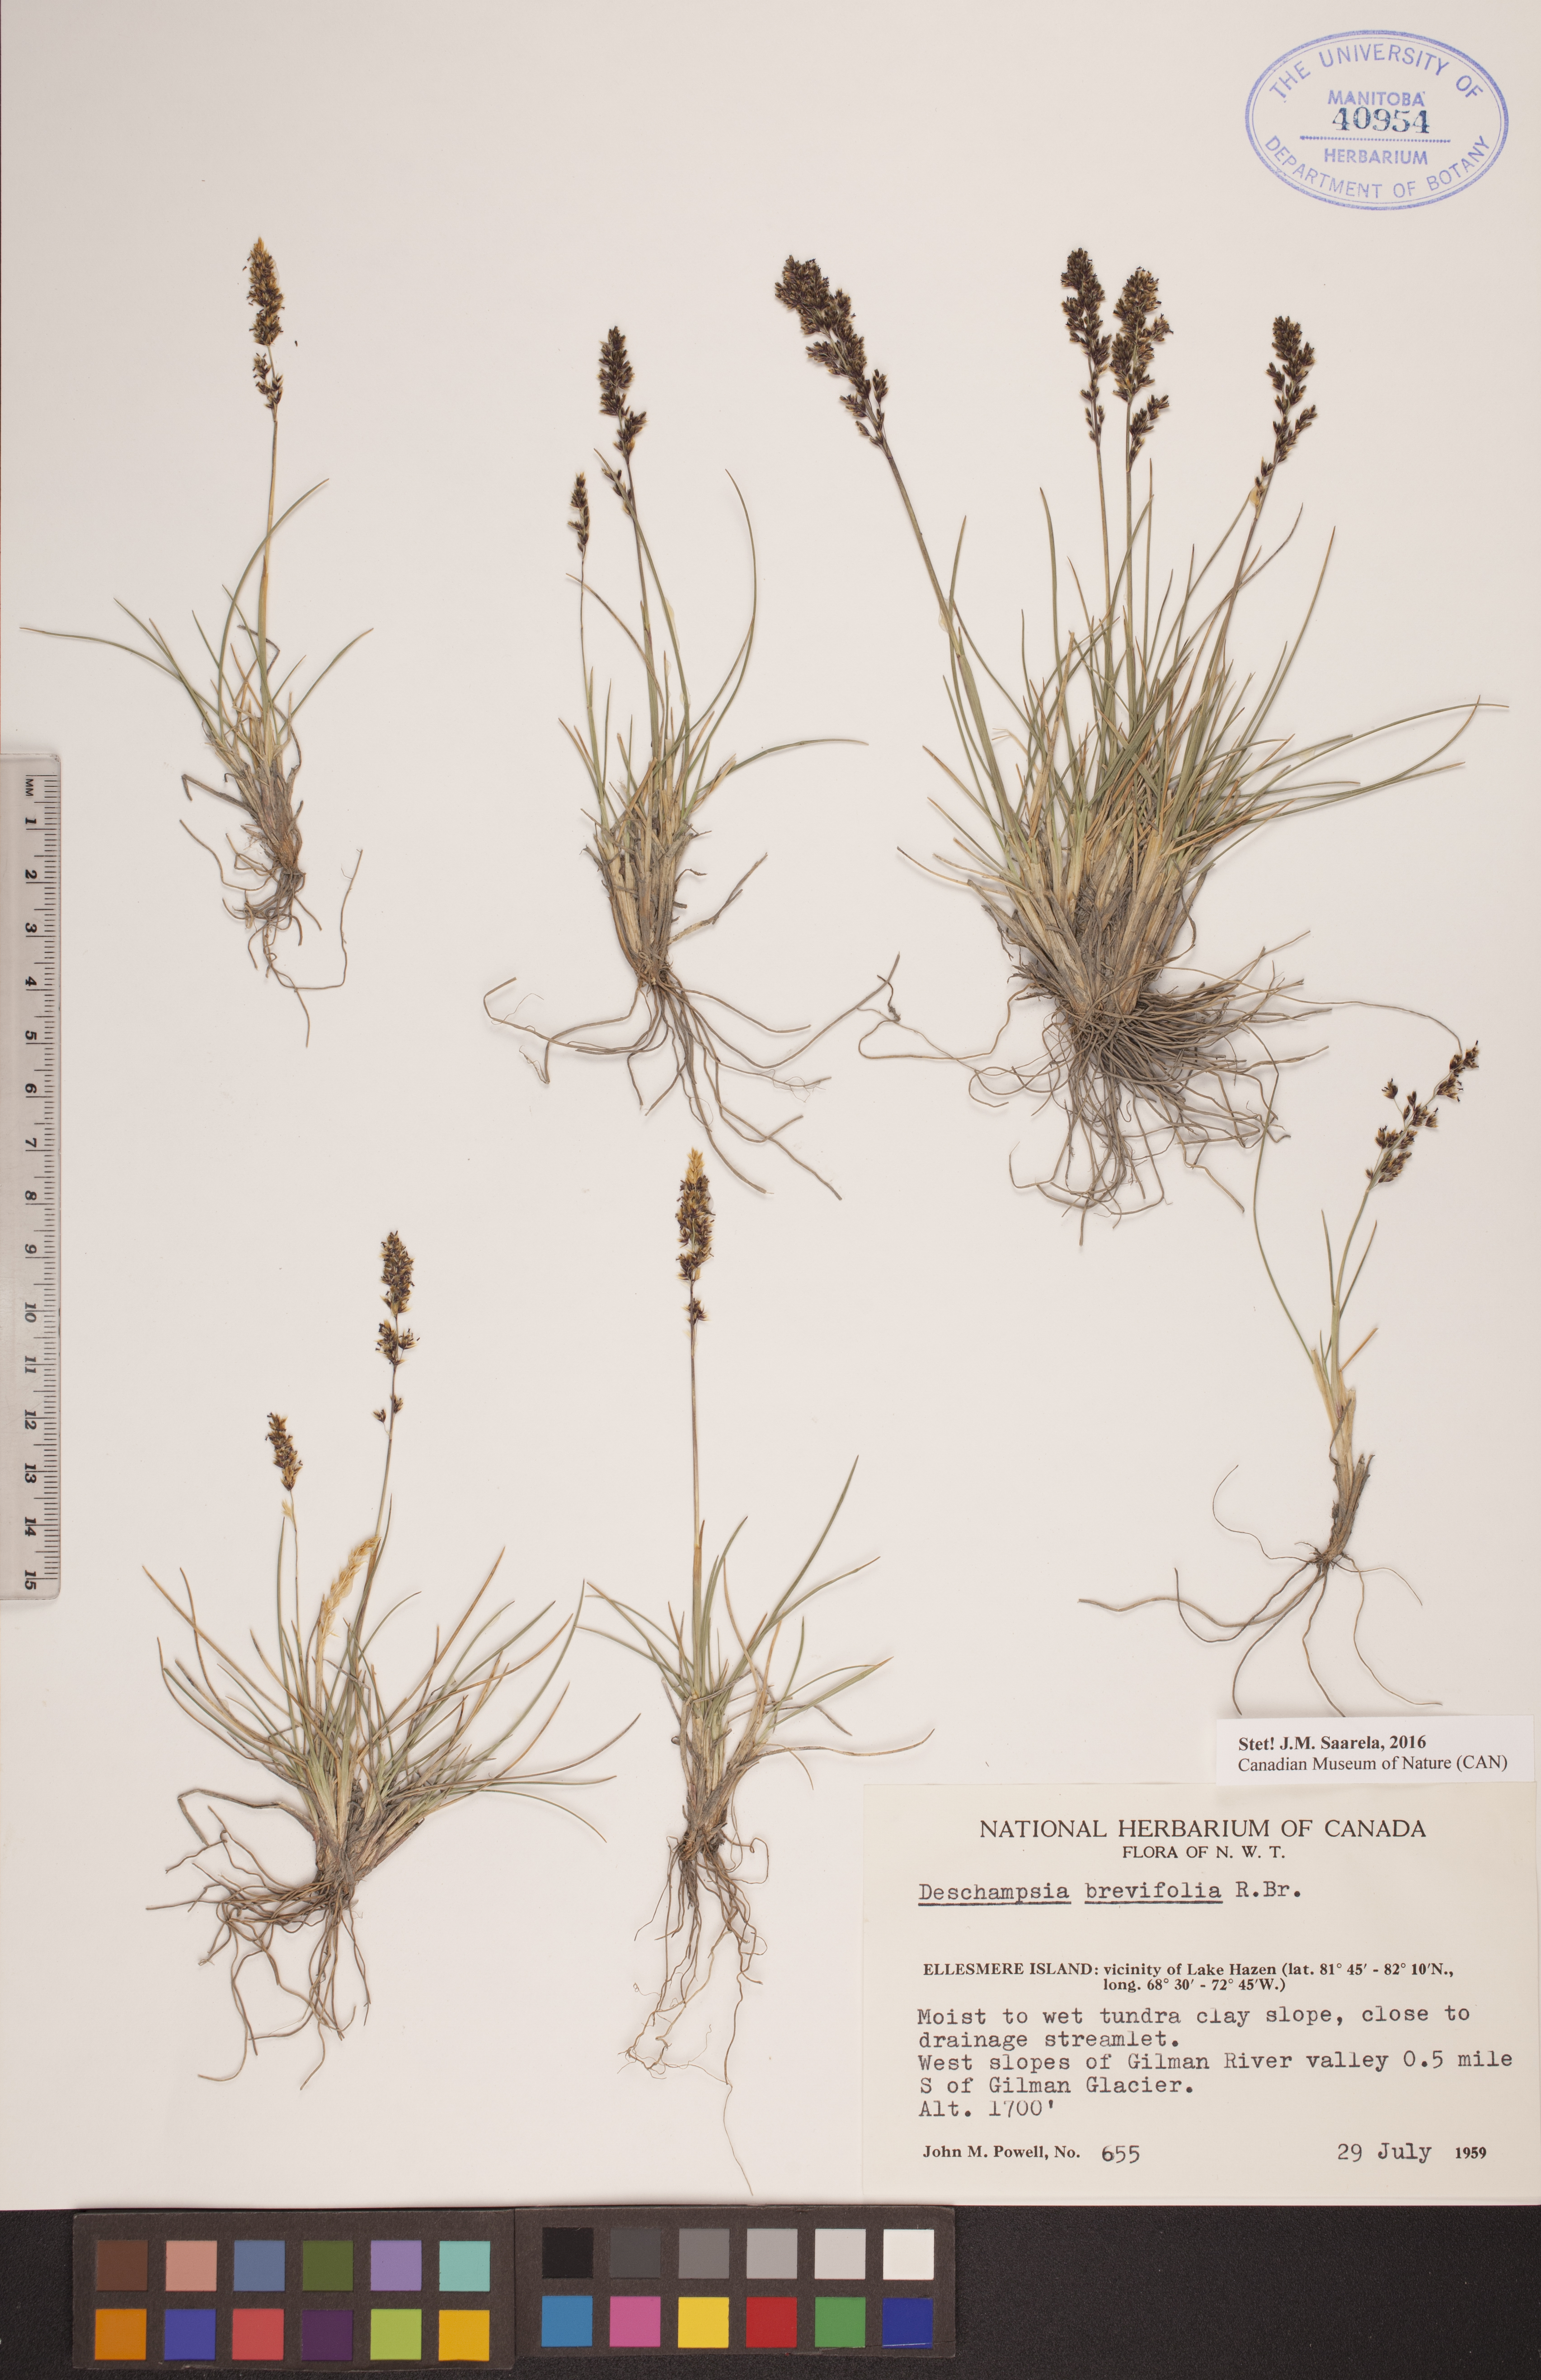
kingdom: Plantae
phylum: Tracheophyta
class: Liliopsida
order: Poales
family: Poaceae
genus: Deschampsia
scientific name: Deschampsia cespitosa
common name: Tufted hair-grass
